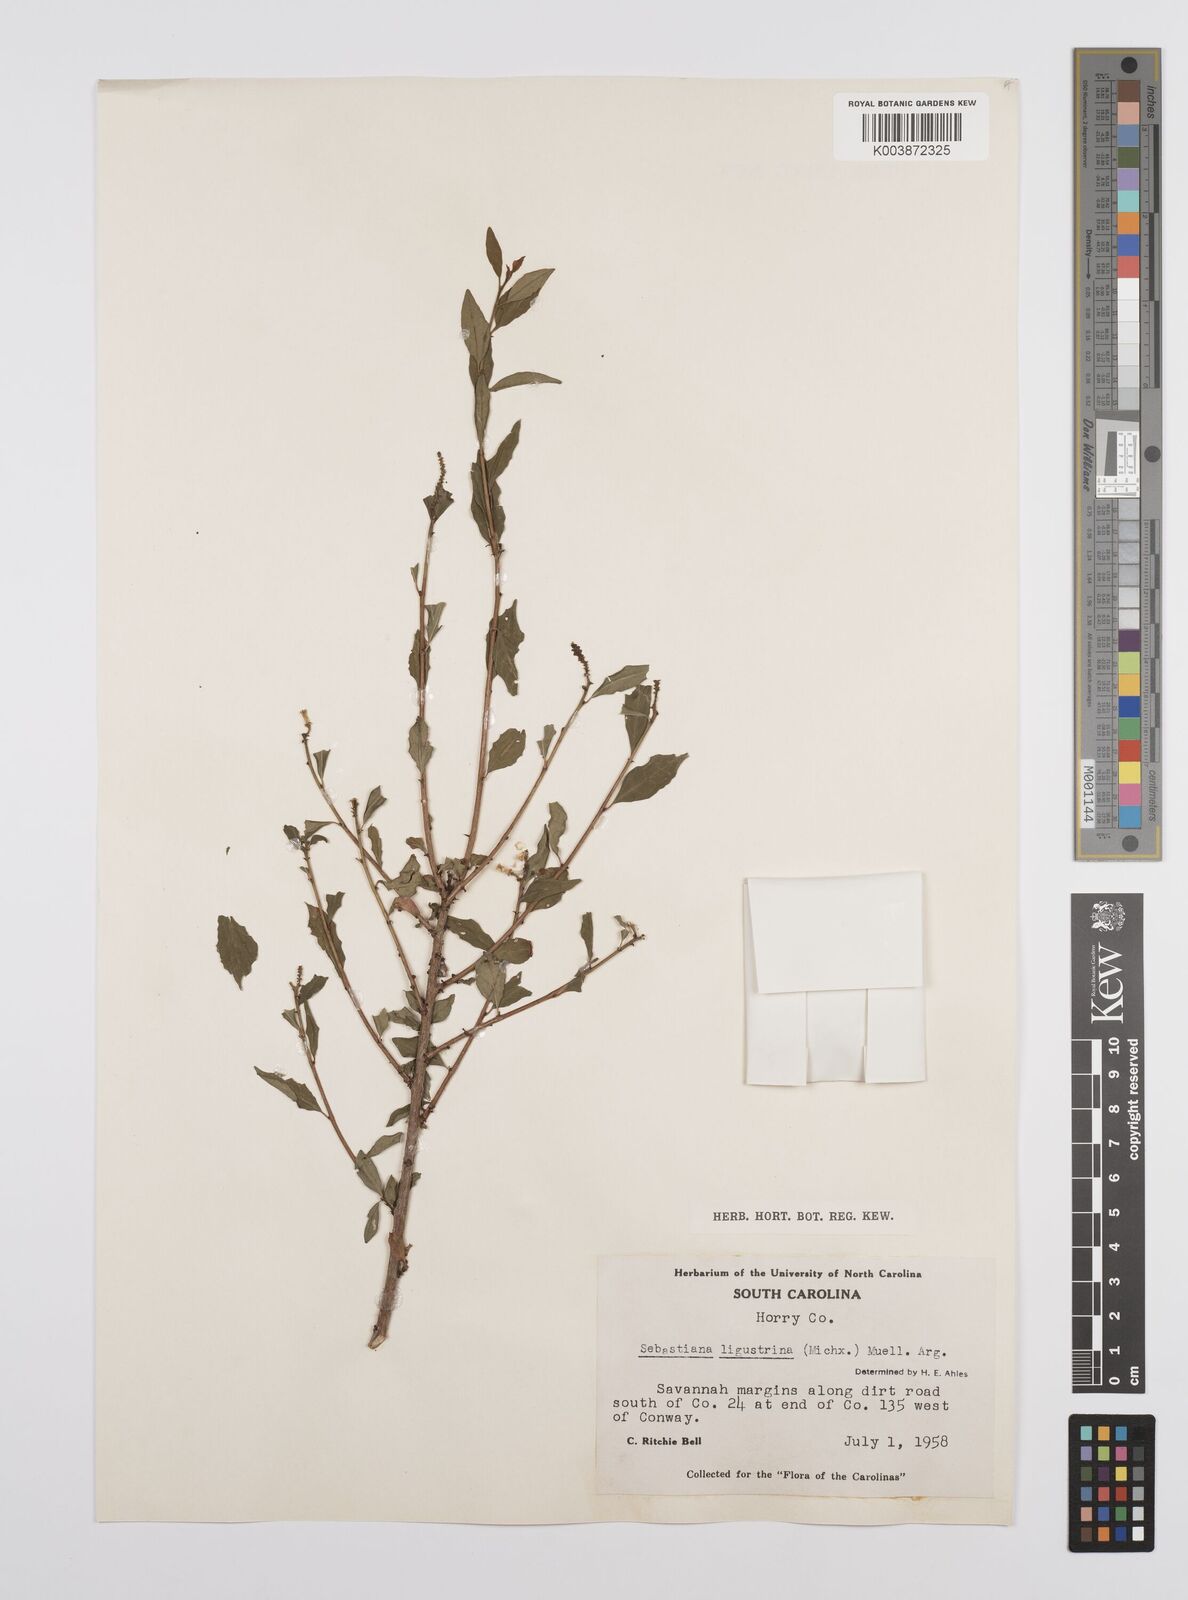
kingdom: Plantae
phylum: Tracheophyta
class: Magnoliopsida
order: Malpighiales
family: Euphorbiaceae
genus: Ditrysinia
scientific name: Ditrysinia fruticosa
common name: Gulf sebastian-bush
